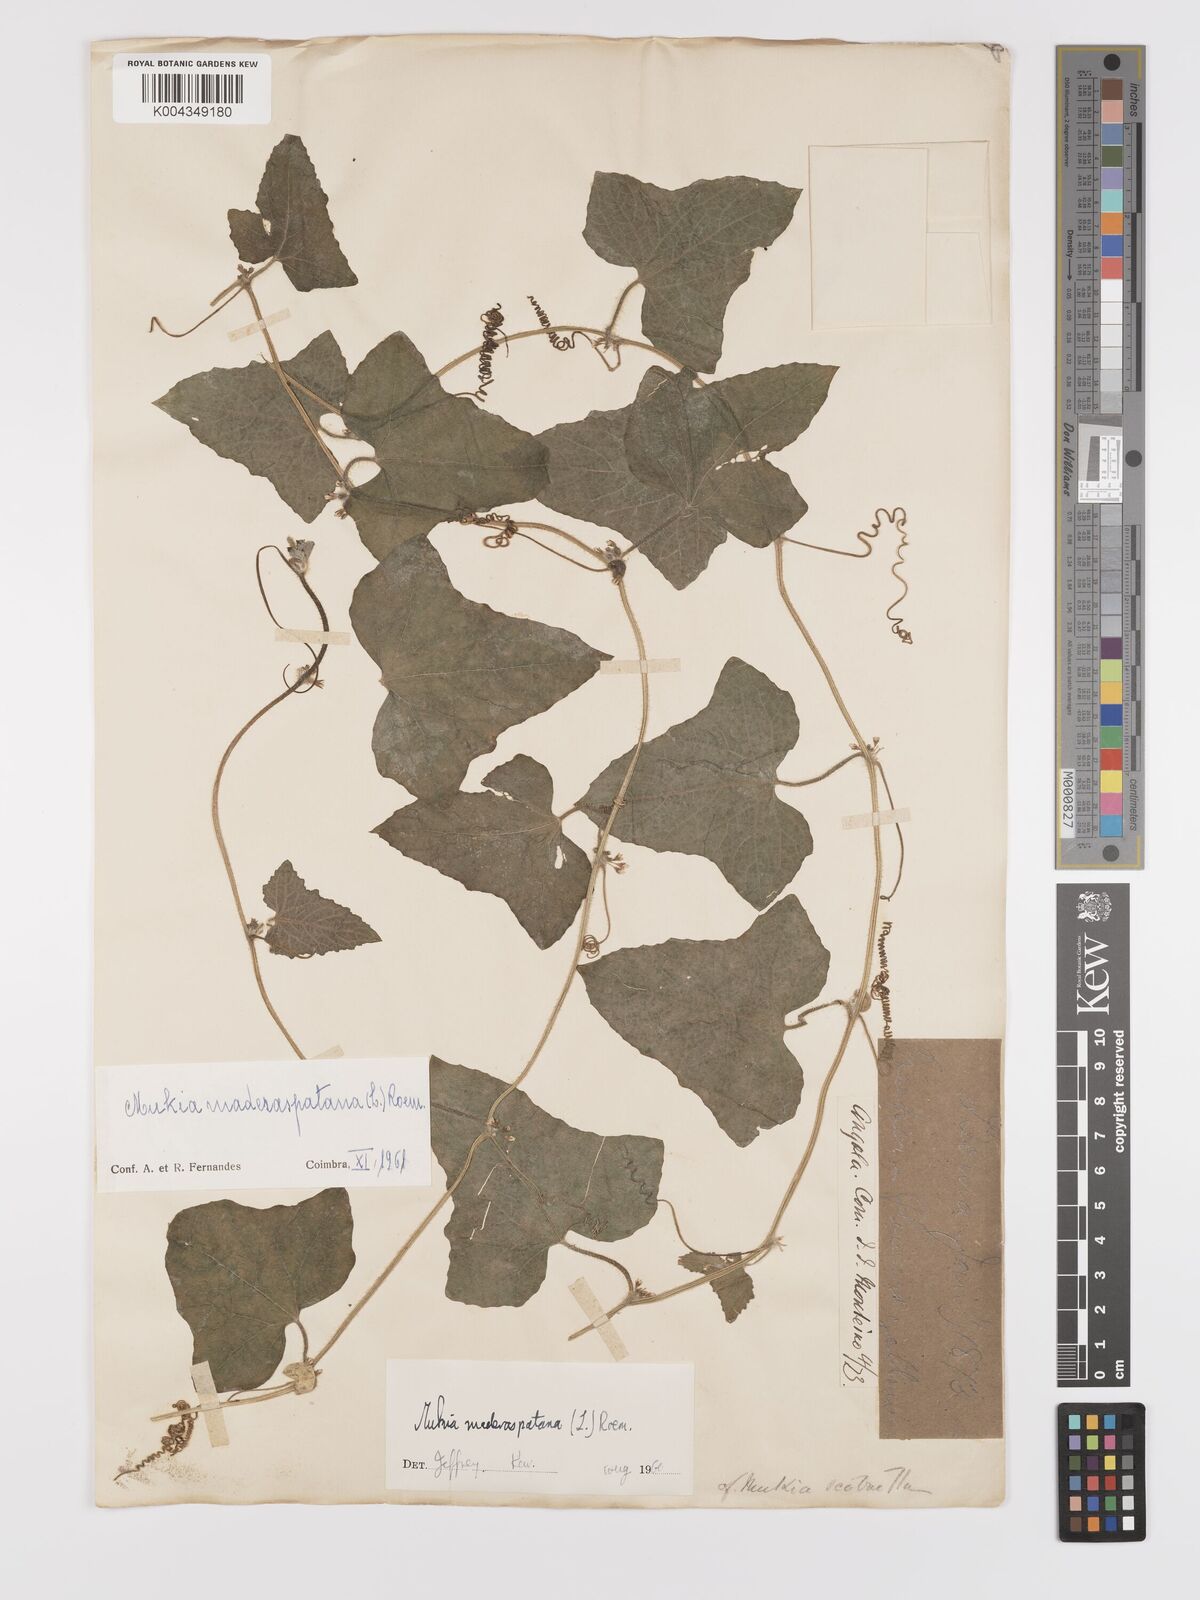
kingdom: Plantae
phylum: Tracheophyta
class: Magnoliopsida
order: Cucurbitales
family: Cucurbitaceae
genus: Cucumis
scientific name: Cucumis maderaspatanus
